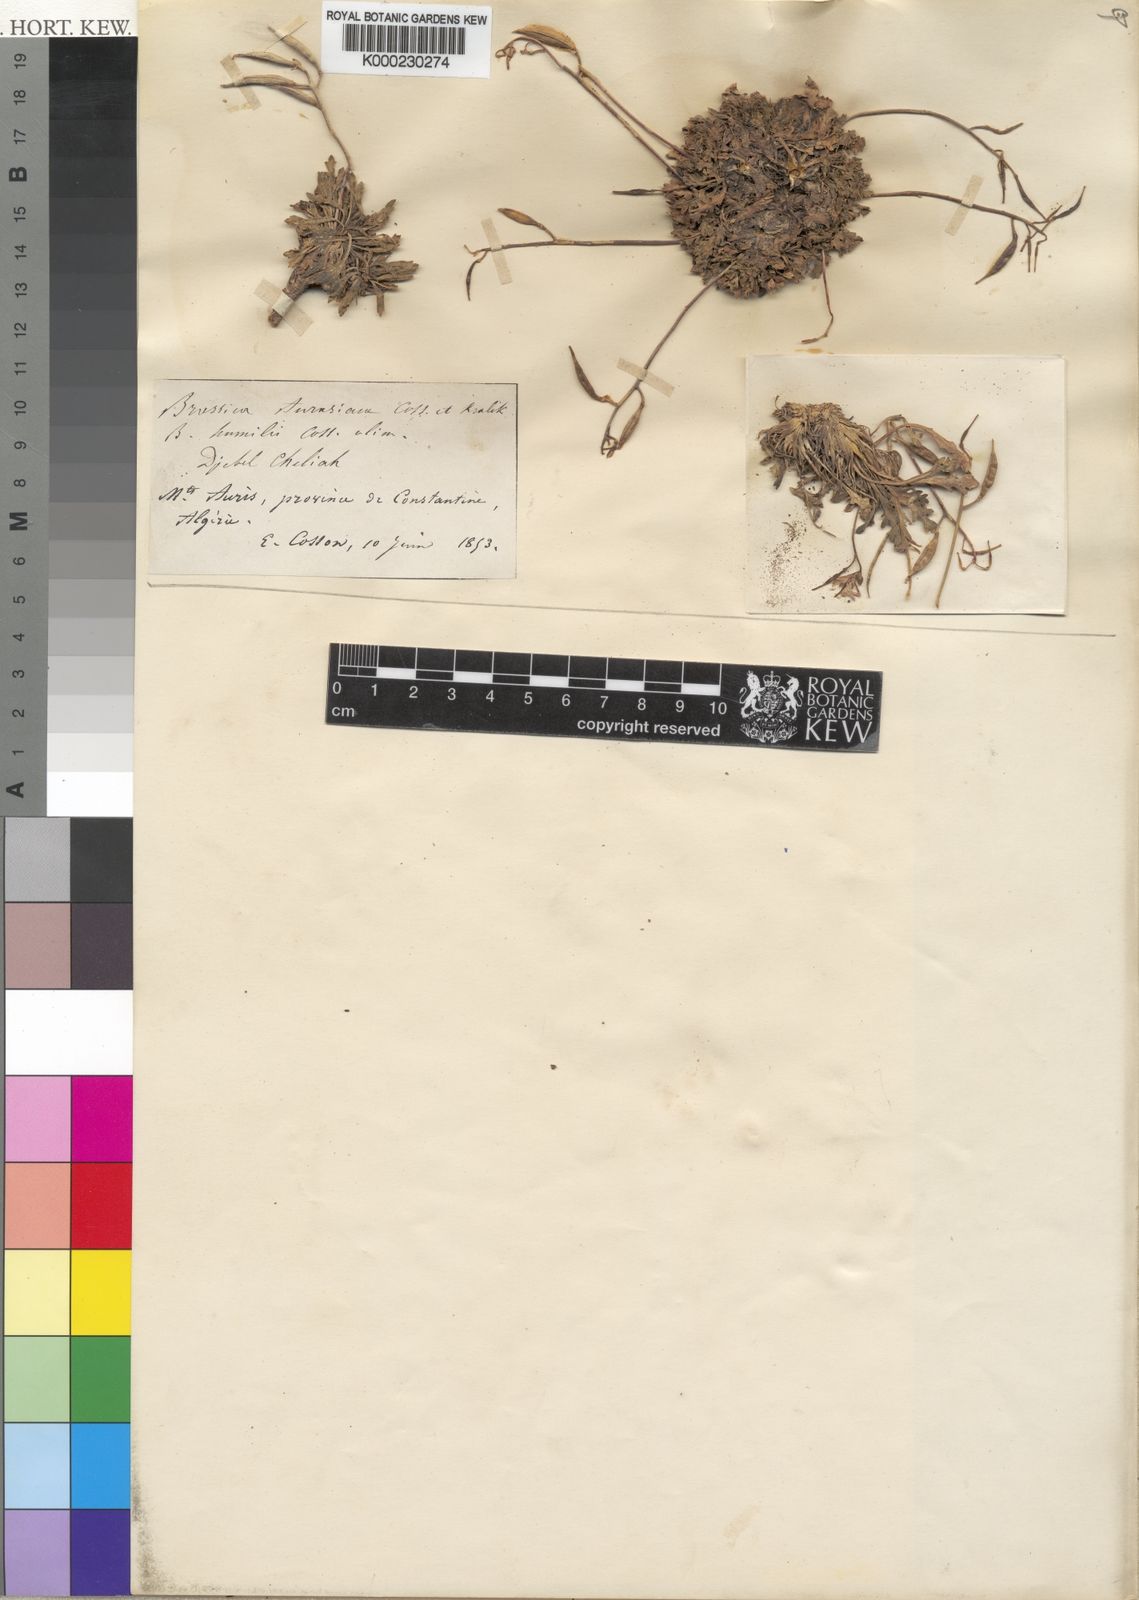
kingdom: Plantae
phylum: Tracheophyta
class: Magnoliopsida
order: Brassicales
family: Brassicaceae
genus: Raffenaldia
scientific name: Raffenaldia platycarpa
